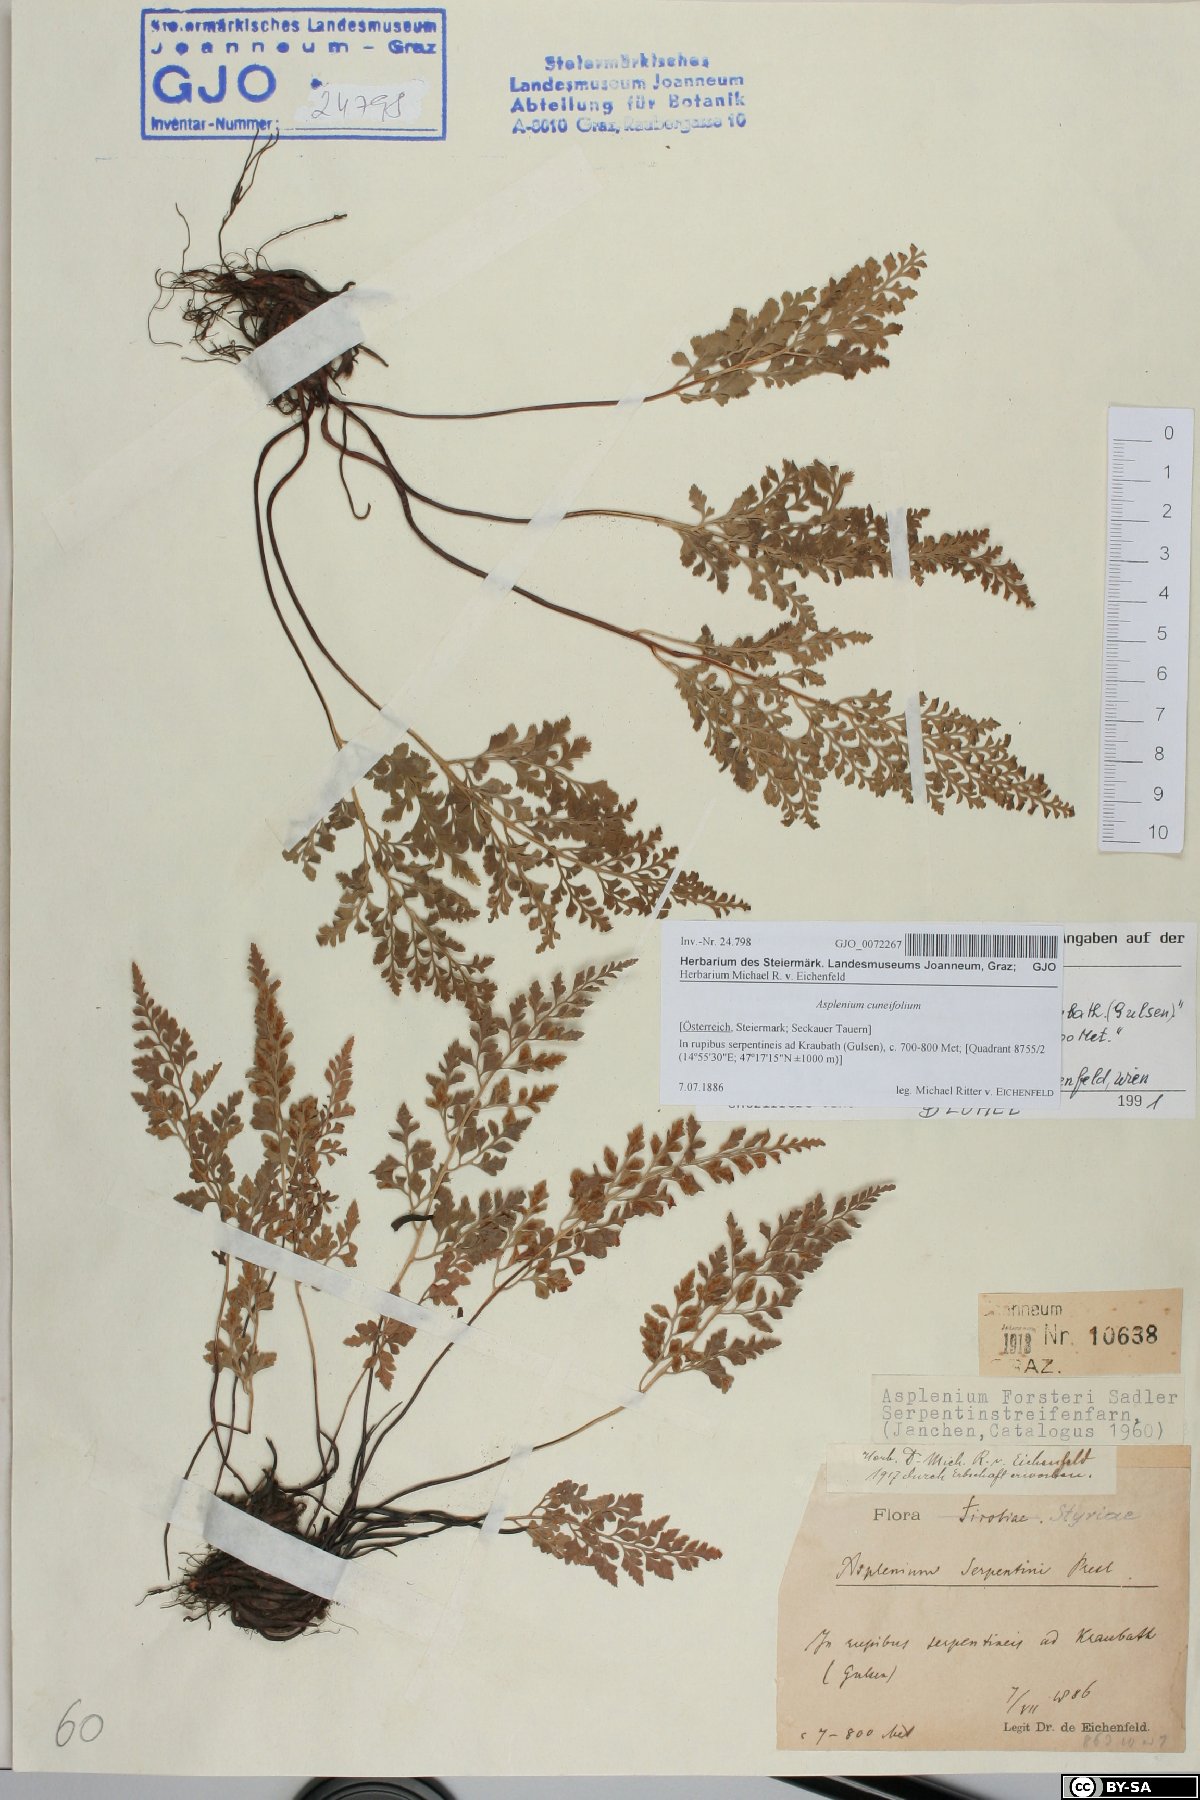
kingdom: Plantae
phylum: Tracheophyta
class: Polypodiopsida
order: Polypodiales
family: Aspleniaceae
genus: Asplenium
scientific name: Asplenium cuneifolium
